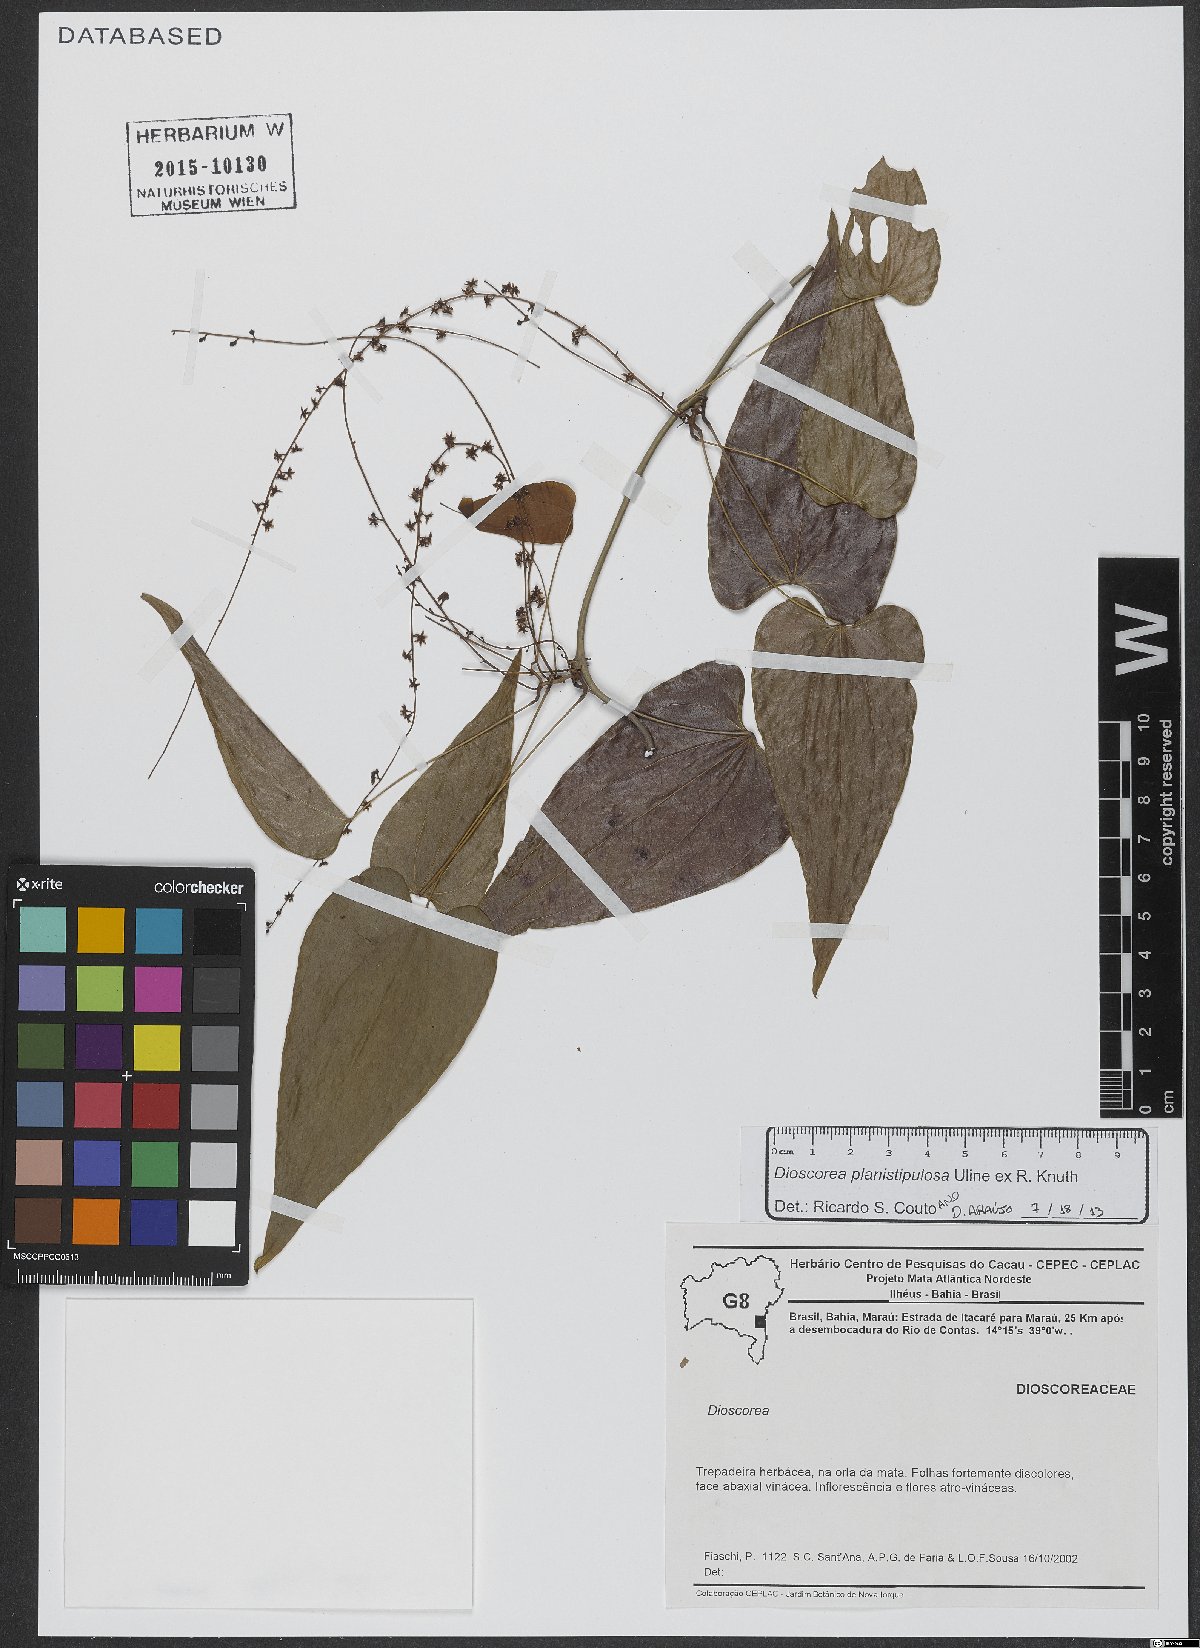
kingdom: Plantae
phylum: Tracheophyta
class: Liliopsida
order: Dioscoreales
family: Dioscoreaceae
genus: Dioscorea
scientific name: Dioscorea planistipulosa
